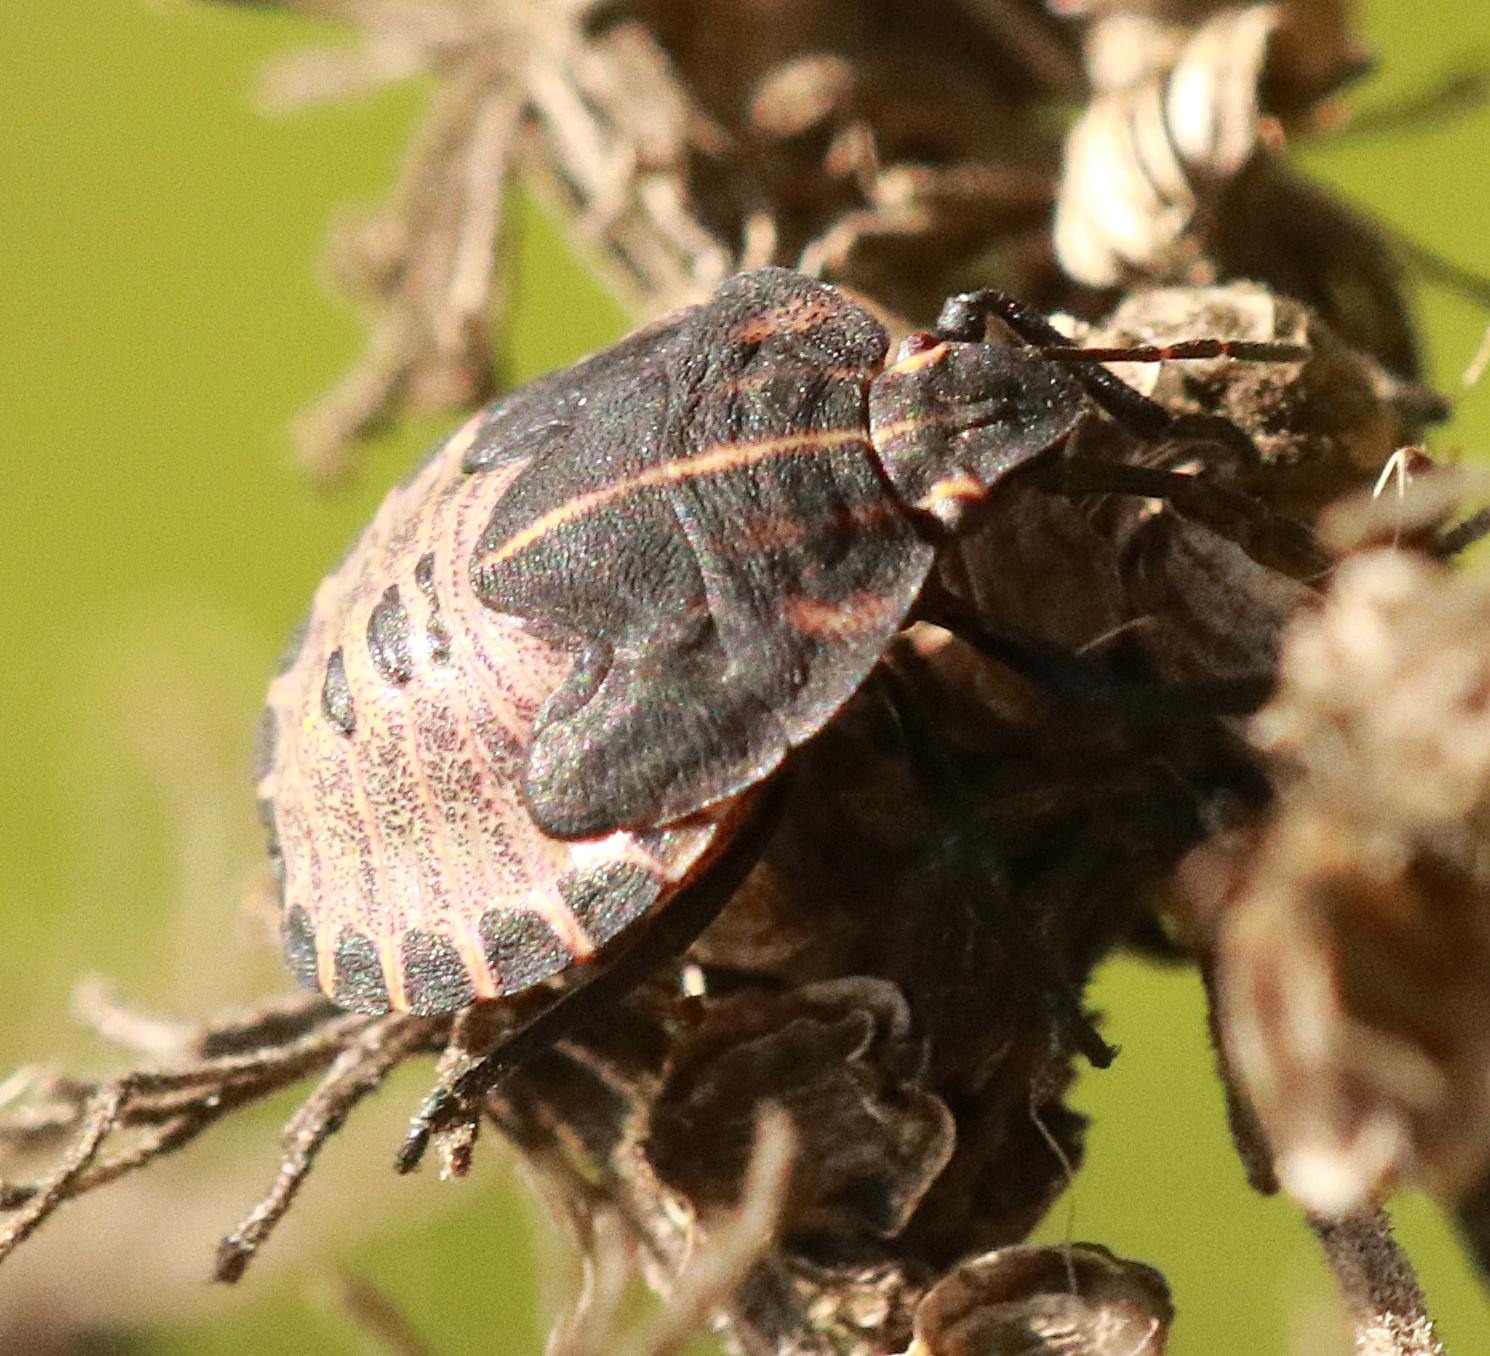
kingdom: Animalia
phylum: Arthropoda
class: Insecta
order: Hemiptera
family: Pentatomidae
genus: Graphosoma
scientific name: Graphosoma italicum
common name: Stribetæge
